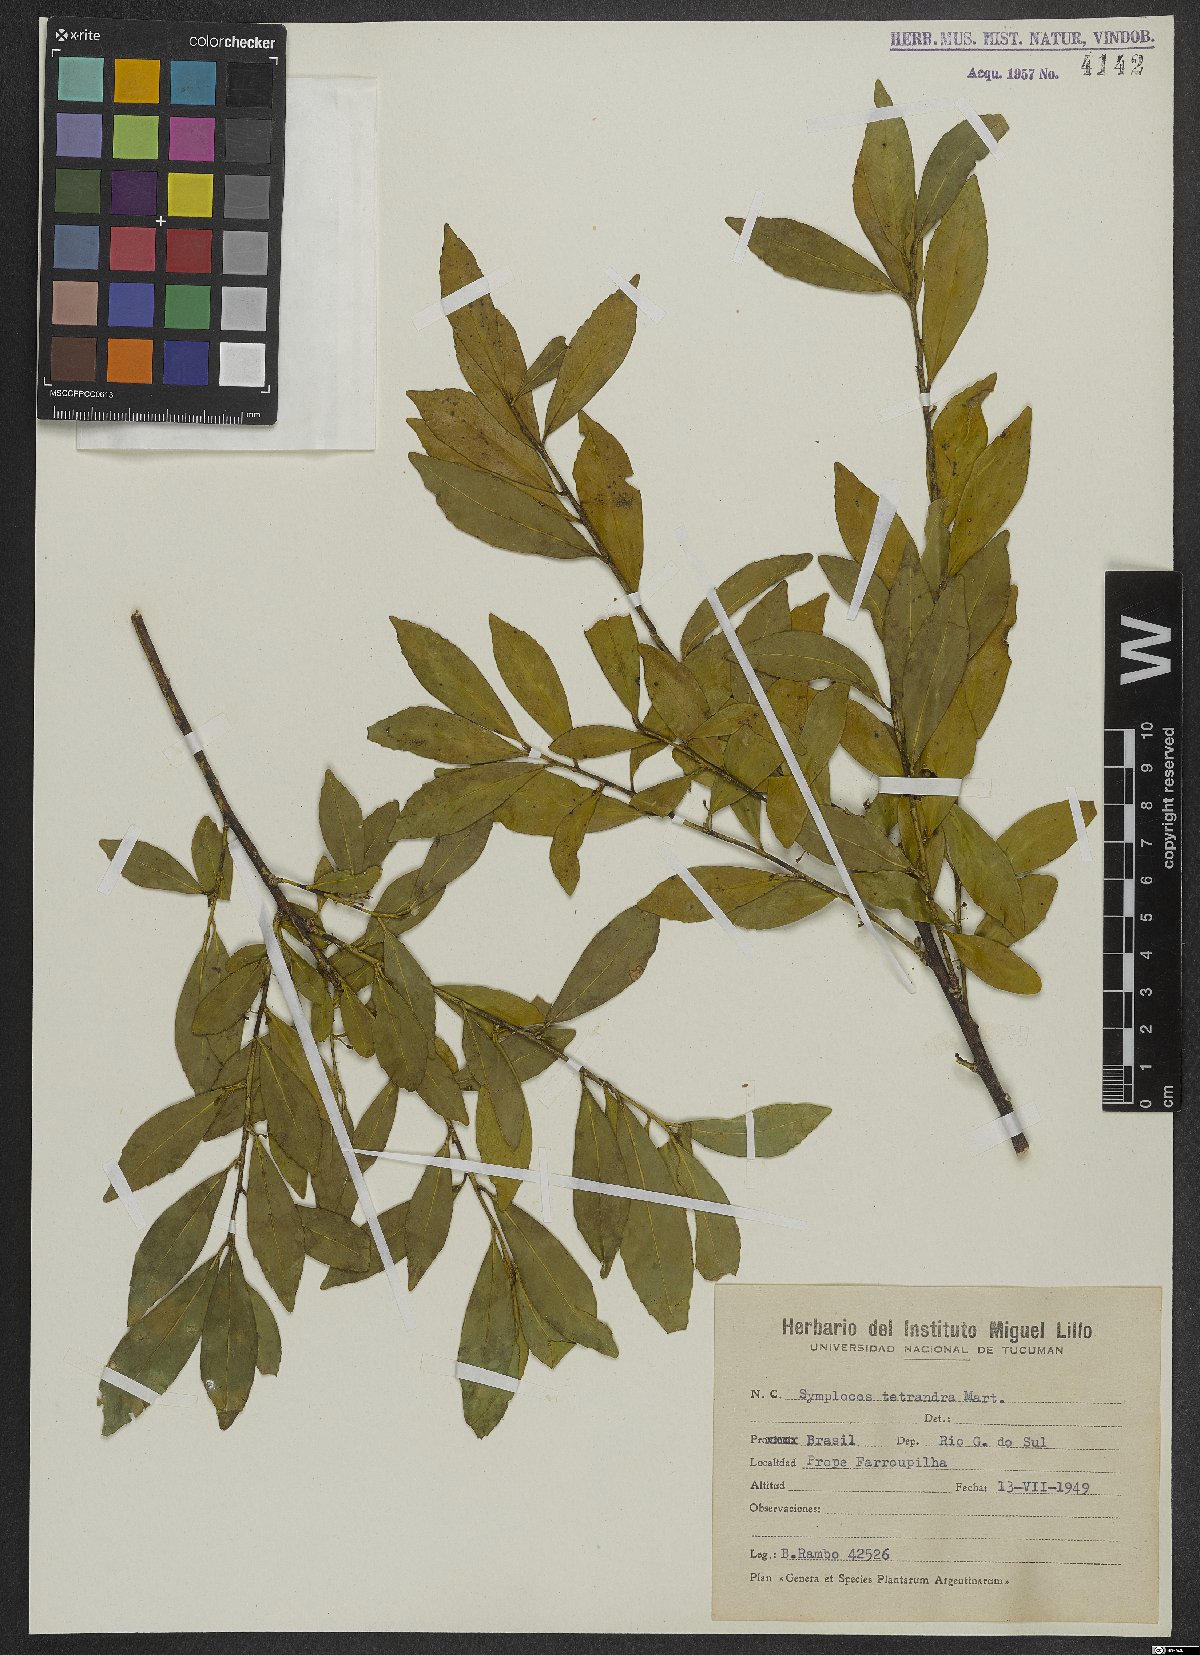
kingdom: Plantae
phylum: Tracheophyta
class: Magnoliopsida
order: Ericales
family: Symplocaceae
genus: Symplocos
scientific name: Symplocos tetrandra
